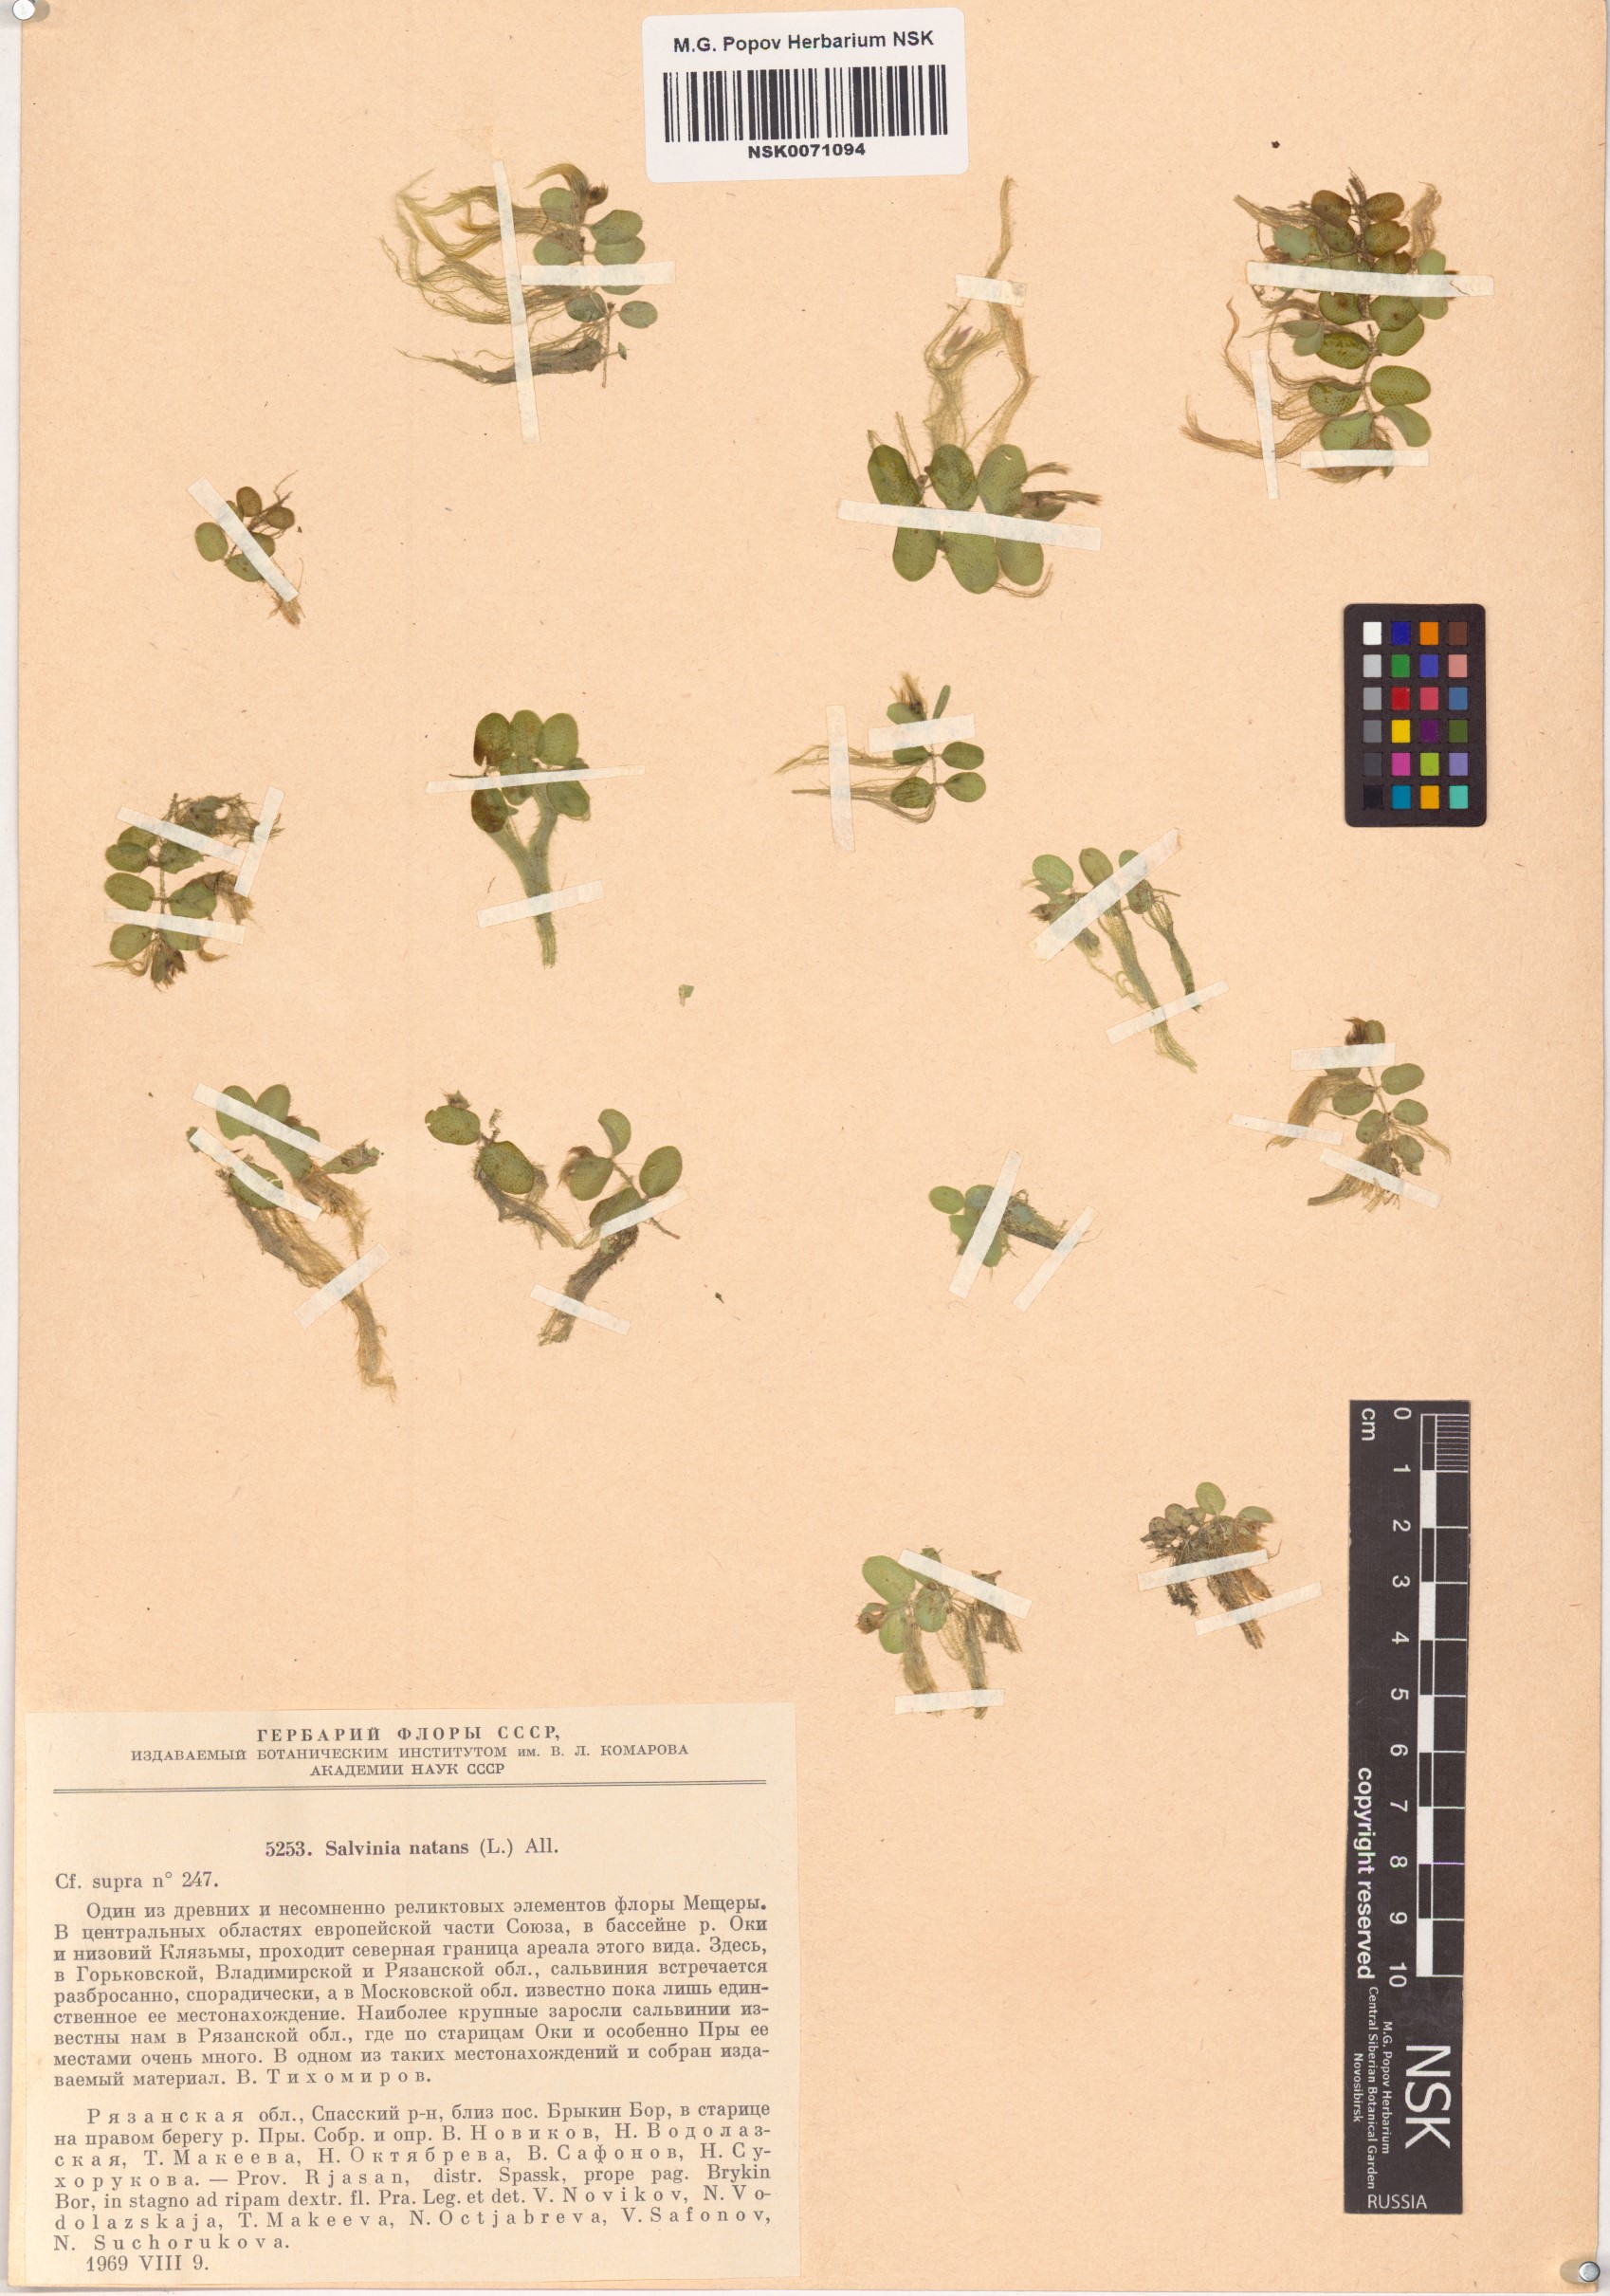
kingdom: Plantae
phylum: Tracheophyta
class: Polypodiopsida
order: Salviniales
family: Salviniaceae
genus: Salvinia
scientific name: Salvinia natans
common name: Floating fern
